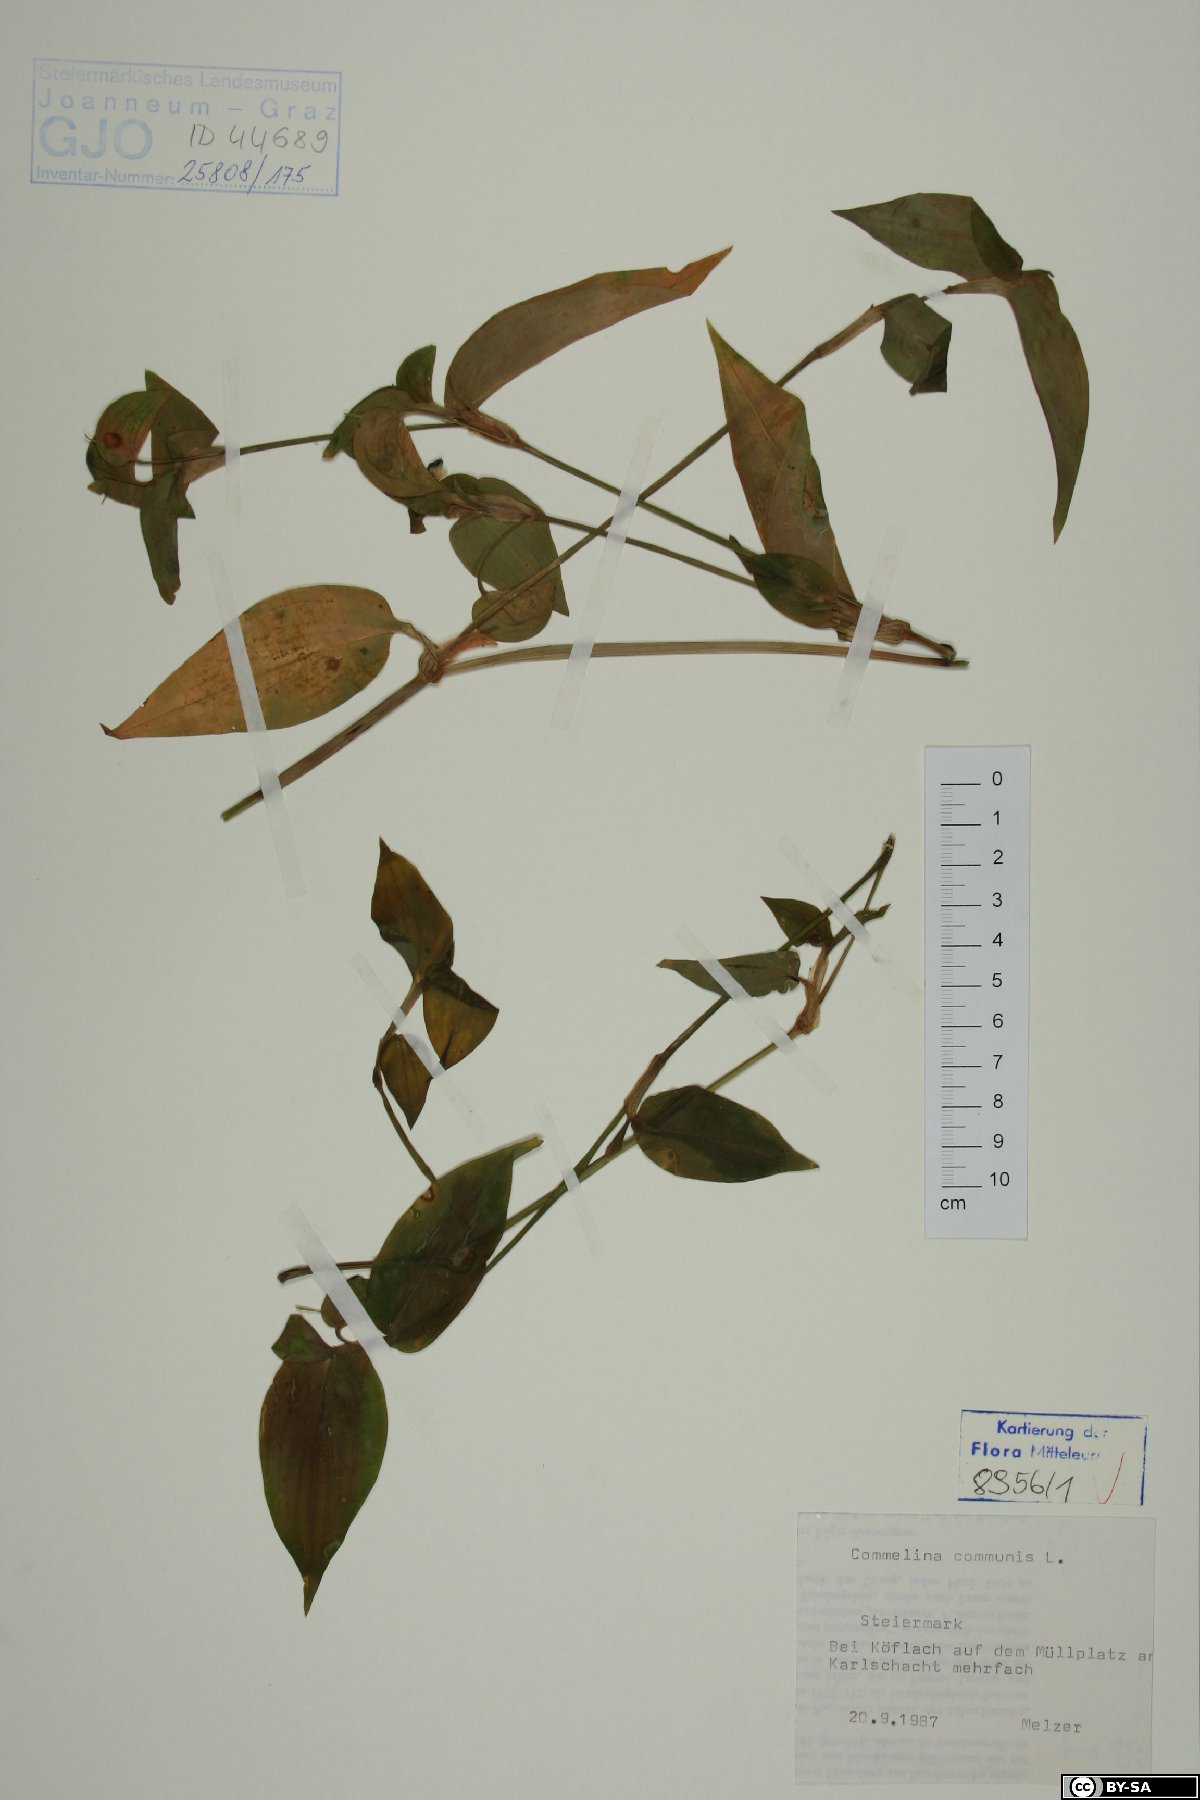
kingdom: Plantae
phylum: Tracheophyta
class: Liliopsida
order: Commelinales
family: Commelinaceae
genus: Commelina
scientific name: Commelina communis
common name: Asiatic dayflower
